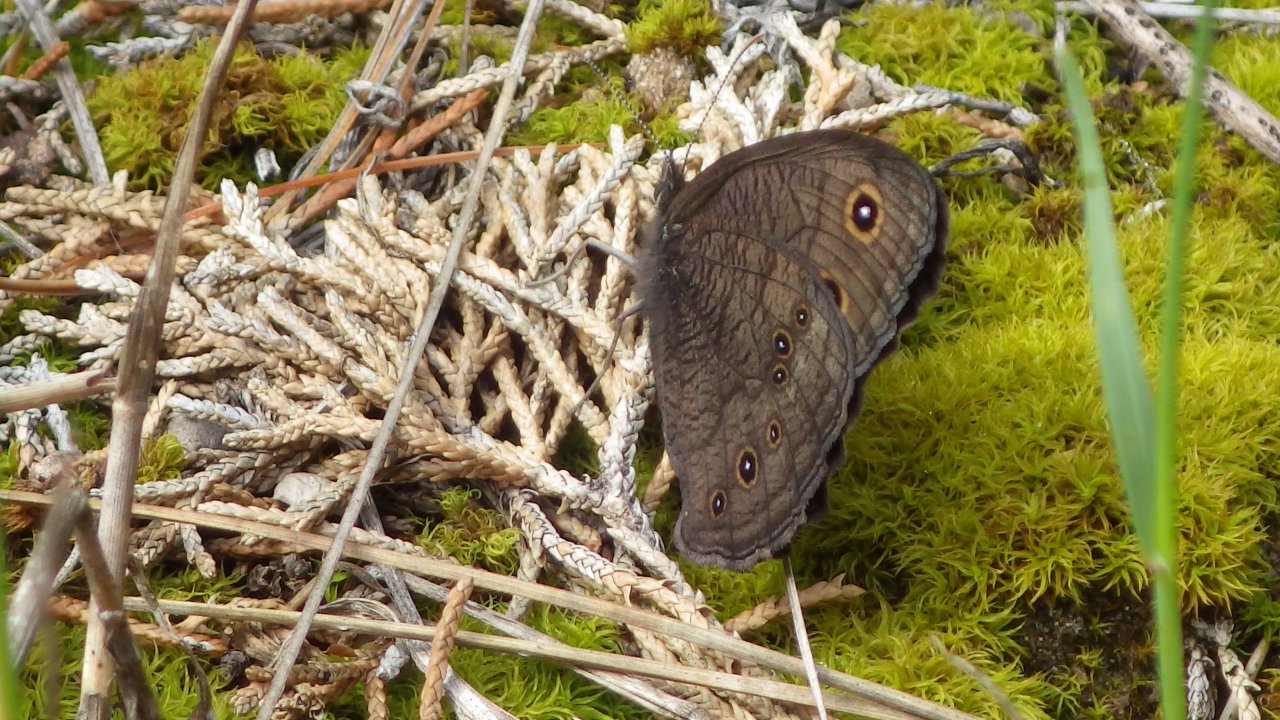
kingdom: Animalia
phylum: Arthropoda
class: Insecta
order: Lepidoptera
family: Nymphalidae
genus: Cercyonis
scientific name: Cercyonis pegala
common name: Common Wood-Nymph
